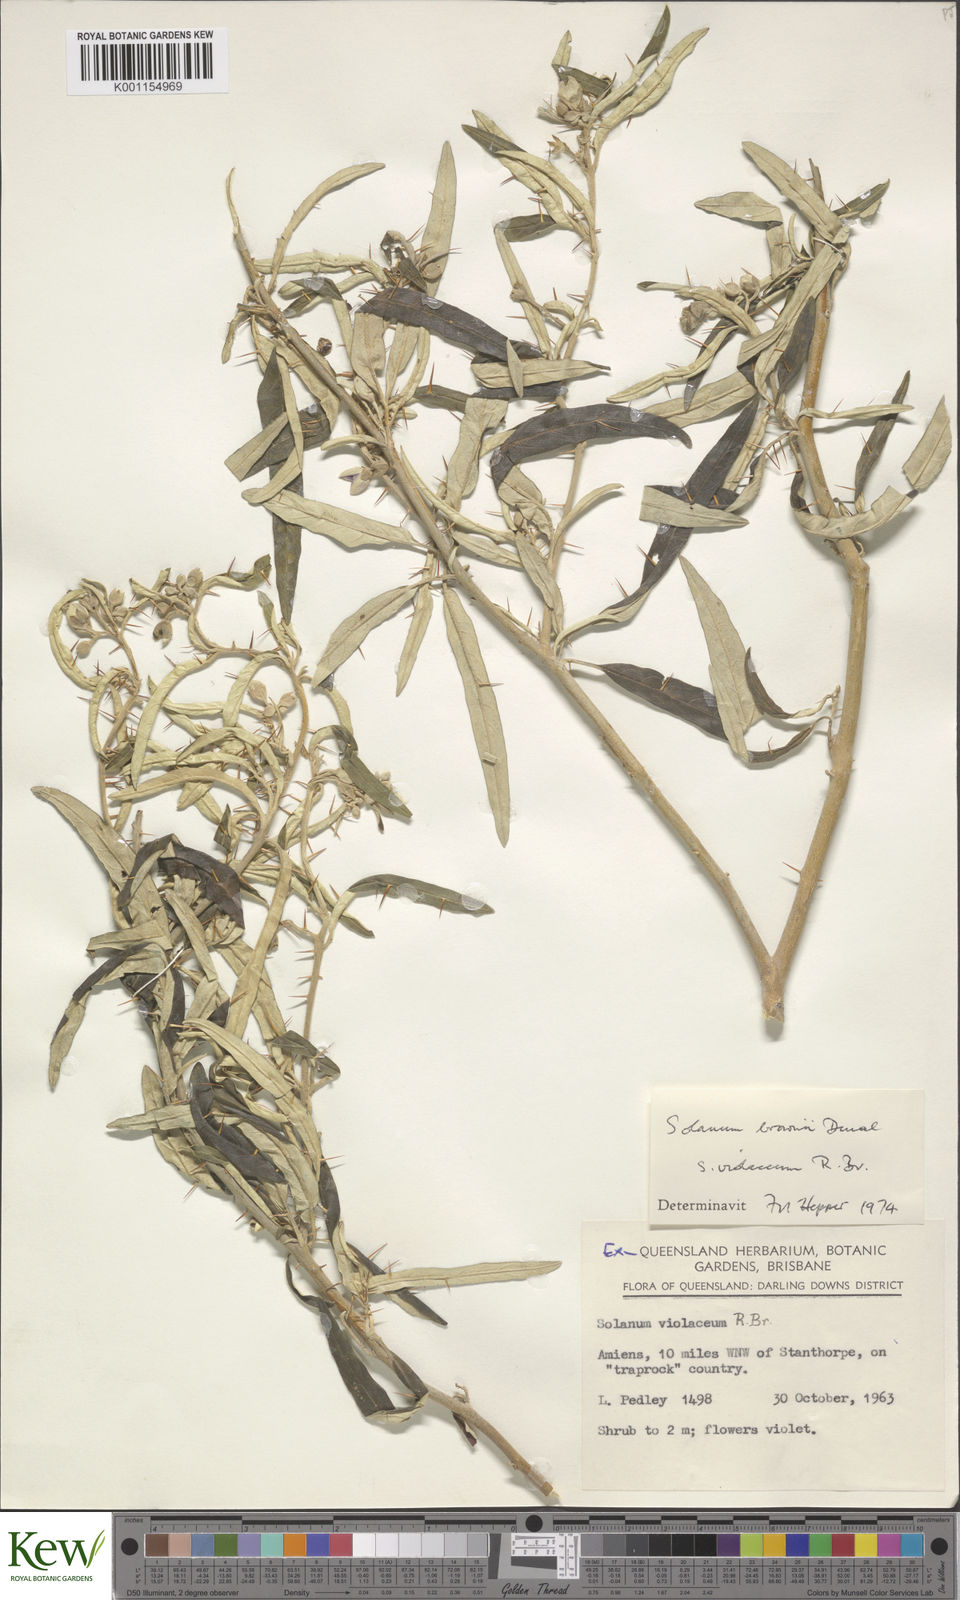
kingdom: Plantae
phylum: Tracheophyta
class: Magnoliopsida
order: Solanales
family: Solanaceae
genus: Solanum
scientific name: Solanum brownii
